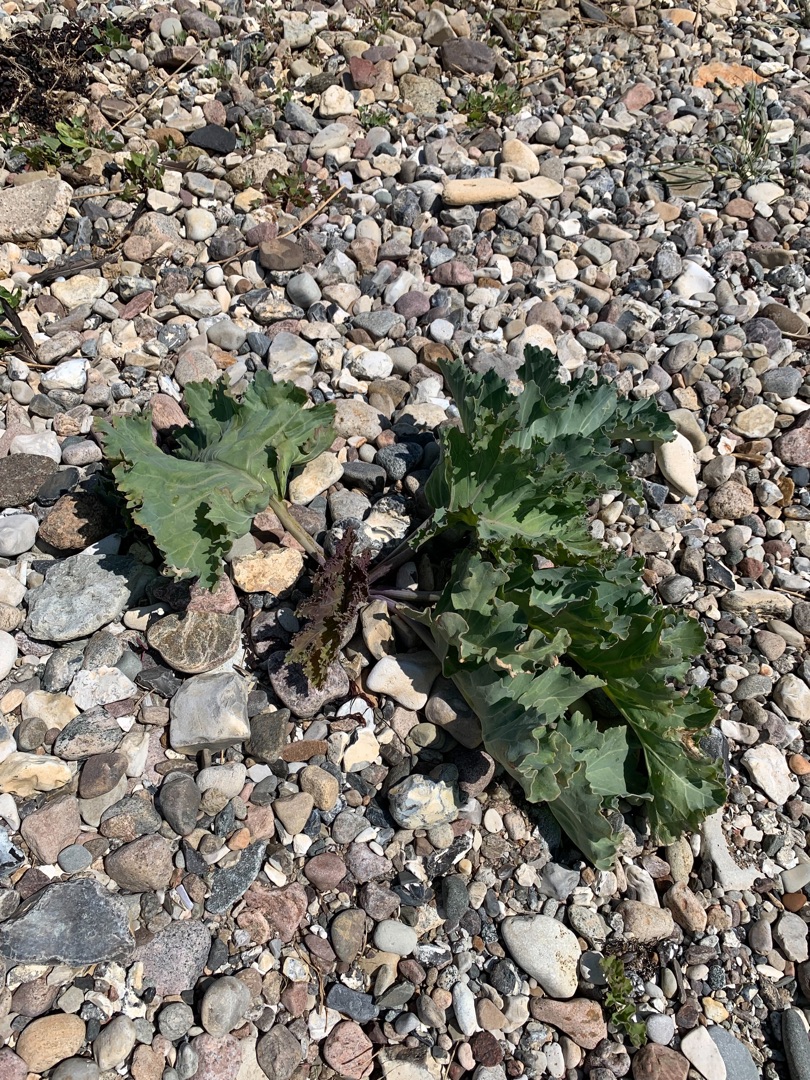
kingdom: Plantae
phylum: Tracheophyta
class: Magnoliopsida
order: Brassicales
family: Brassicaceae
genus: Crambe
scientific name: Crambe maritima
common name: Strandkål
